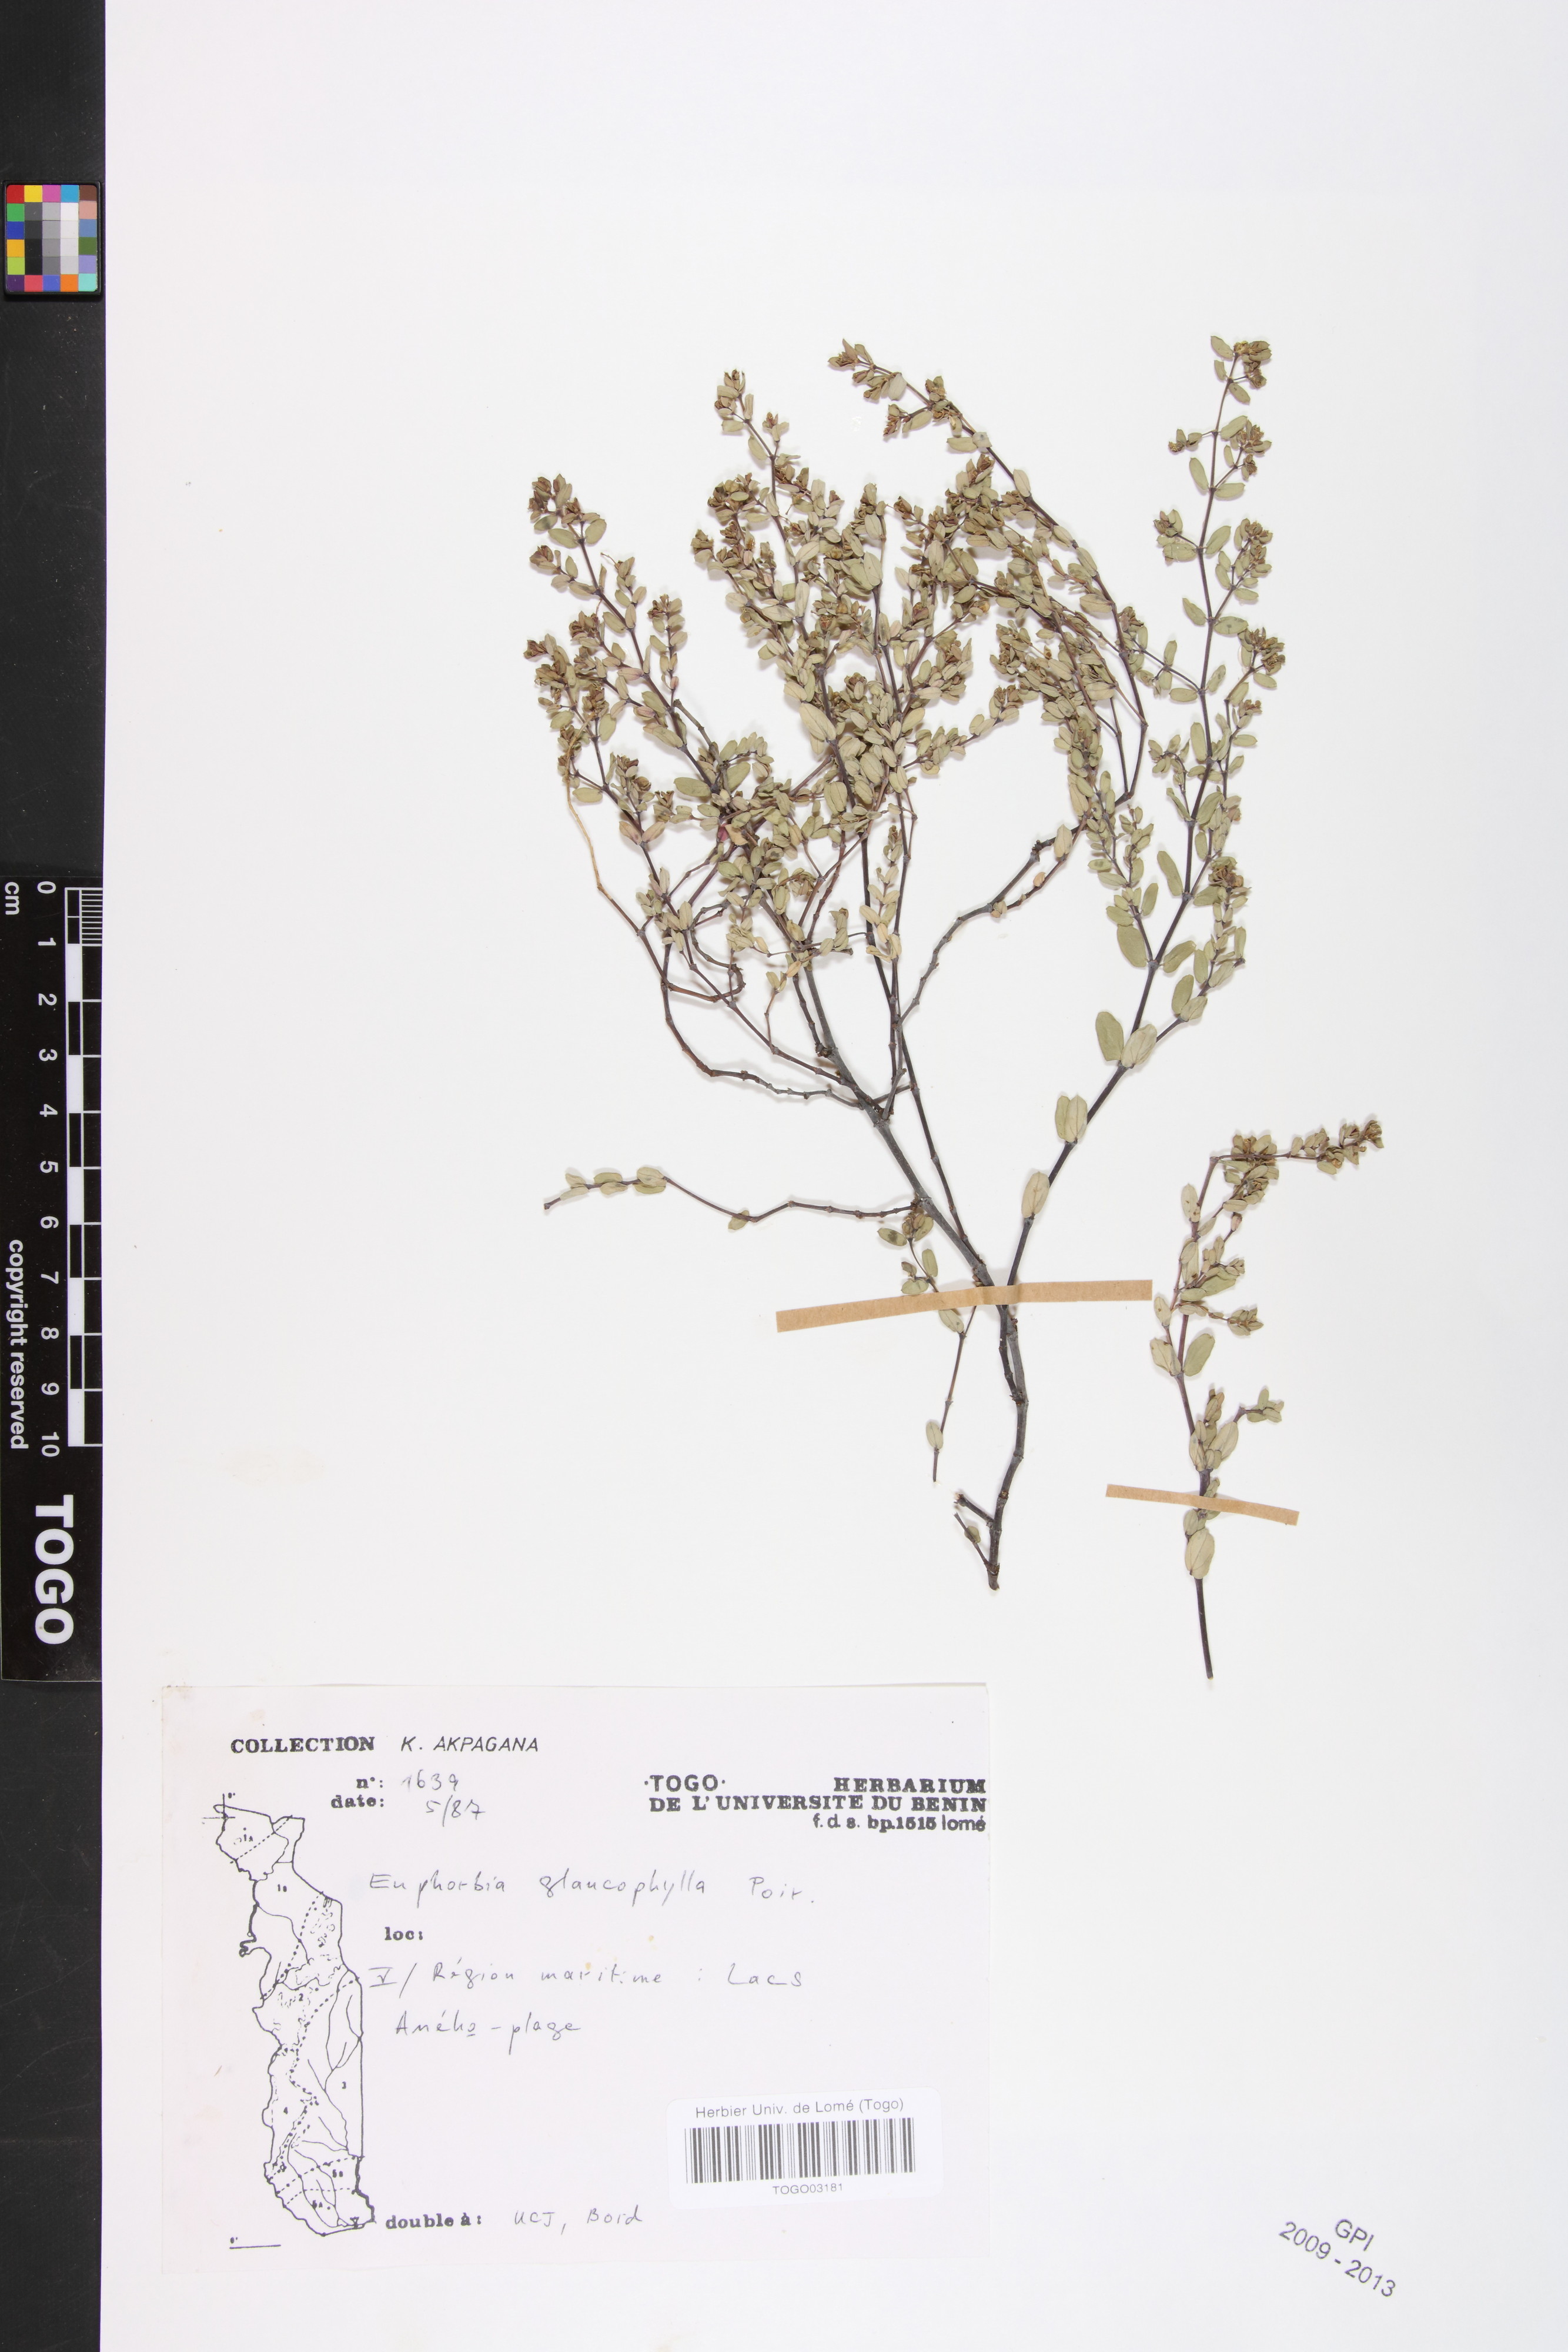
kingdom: Plantae
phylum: Tracheophyta
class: Magnoliopsida
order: Malpighiales
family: Euphorbiaceae
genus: Euphorbia
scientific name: Euphorbia glaucophylla
